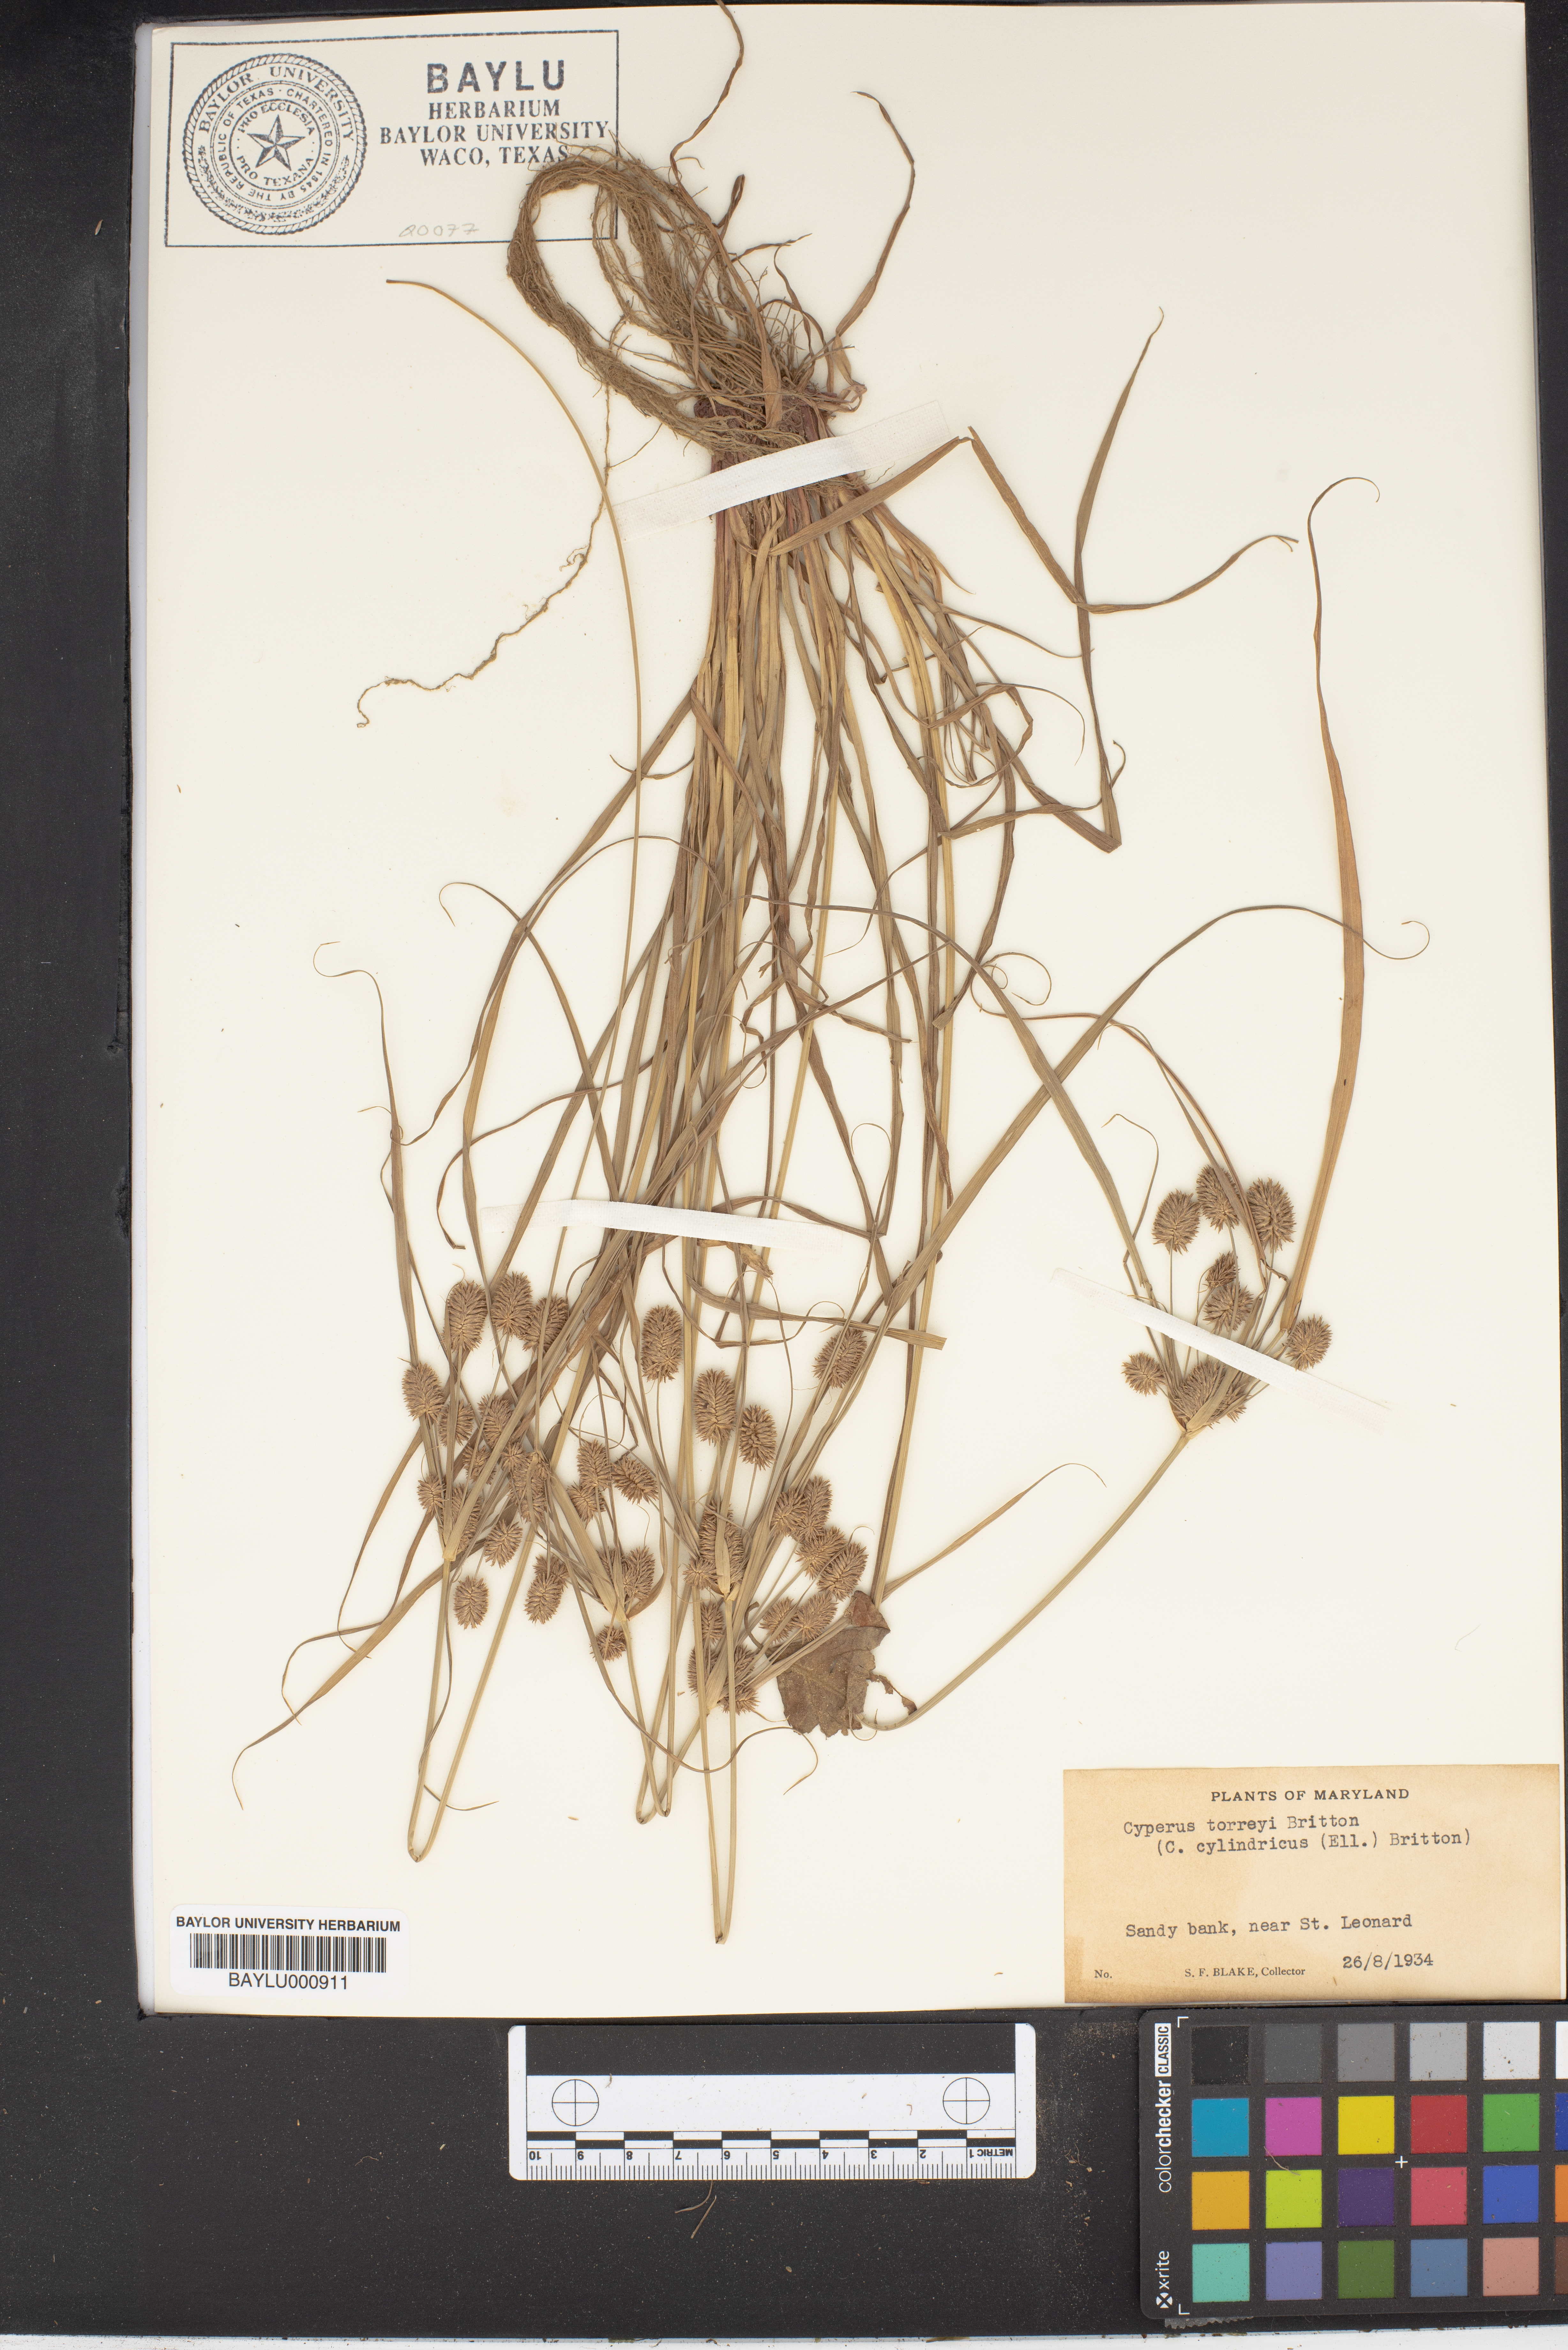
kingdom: Plantae
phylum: Tracheophyta
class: Liliopsida
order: Poales
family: Cyperaceae
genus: Cyperus
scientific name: Cyperus retrorsus
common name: Pinebarren flat sedge
